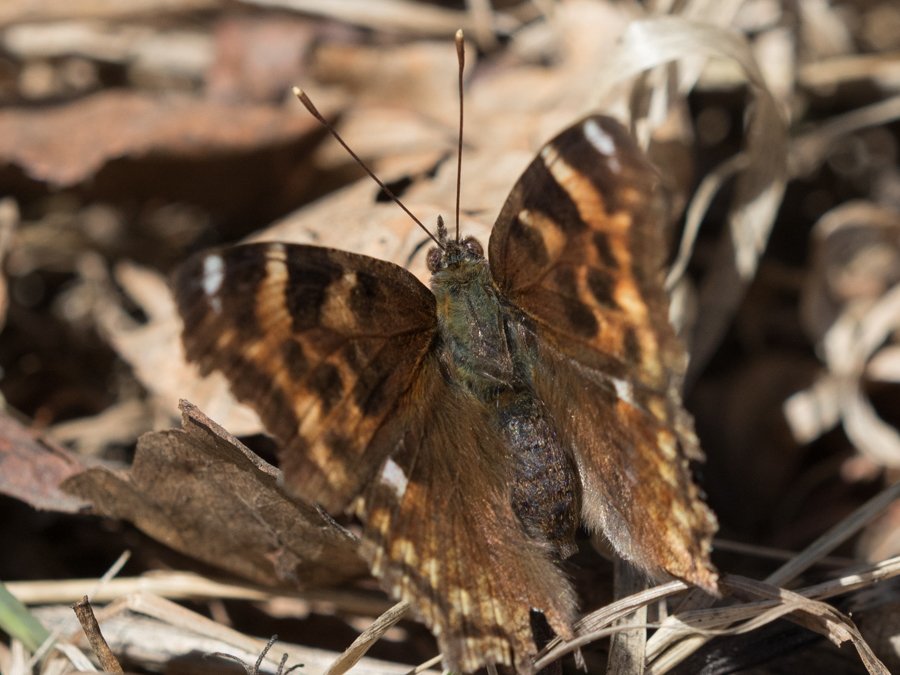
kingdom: Animalia
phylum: Arthropoda
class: Insecta
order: Lepidoptera
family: Nymphalidae
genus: Polygonia
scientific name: Polygonia vaualbum
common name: Compton Tortoiseshell
